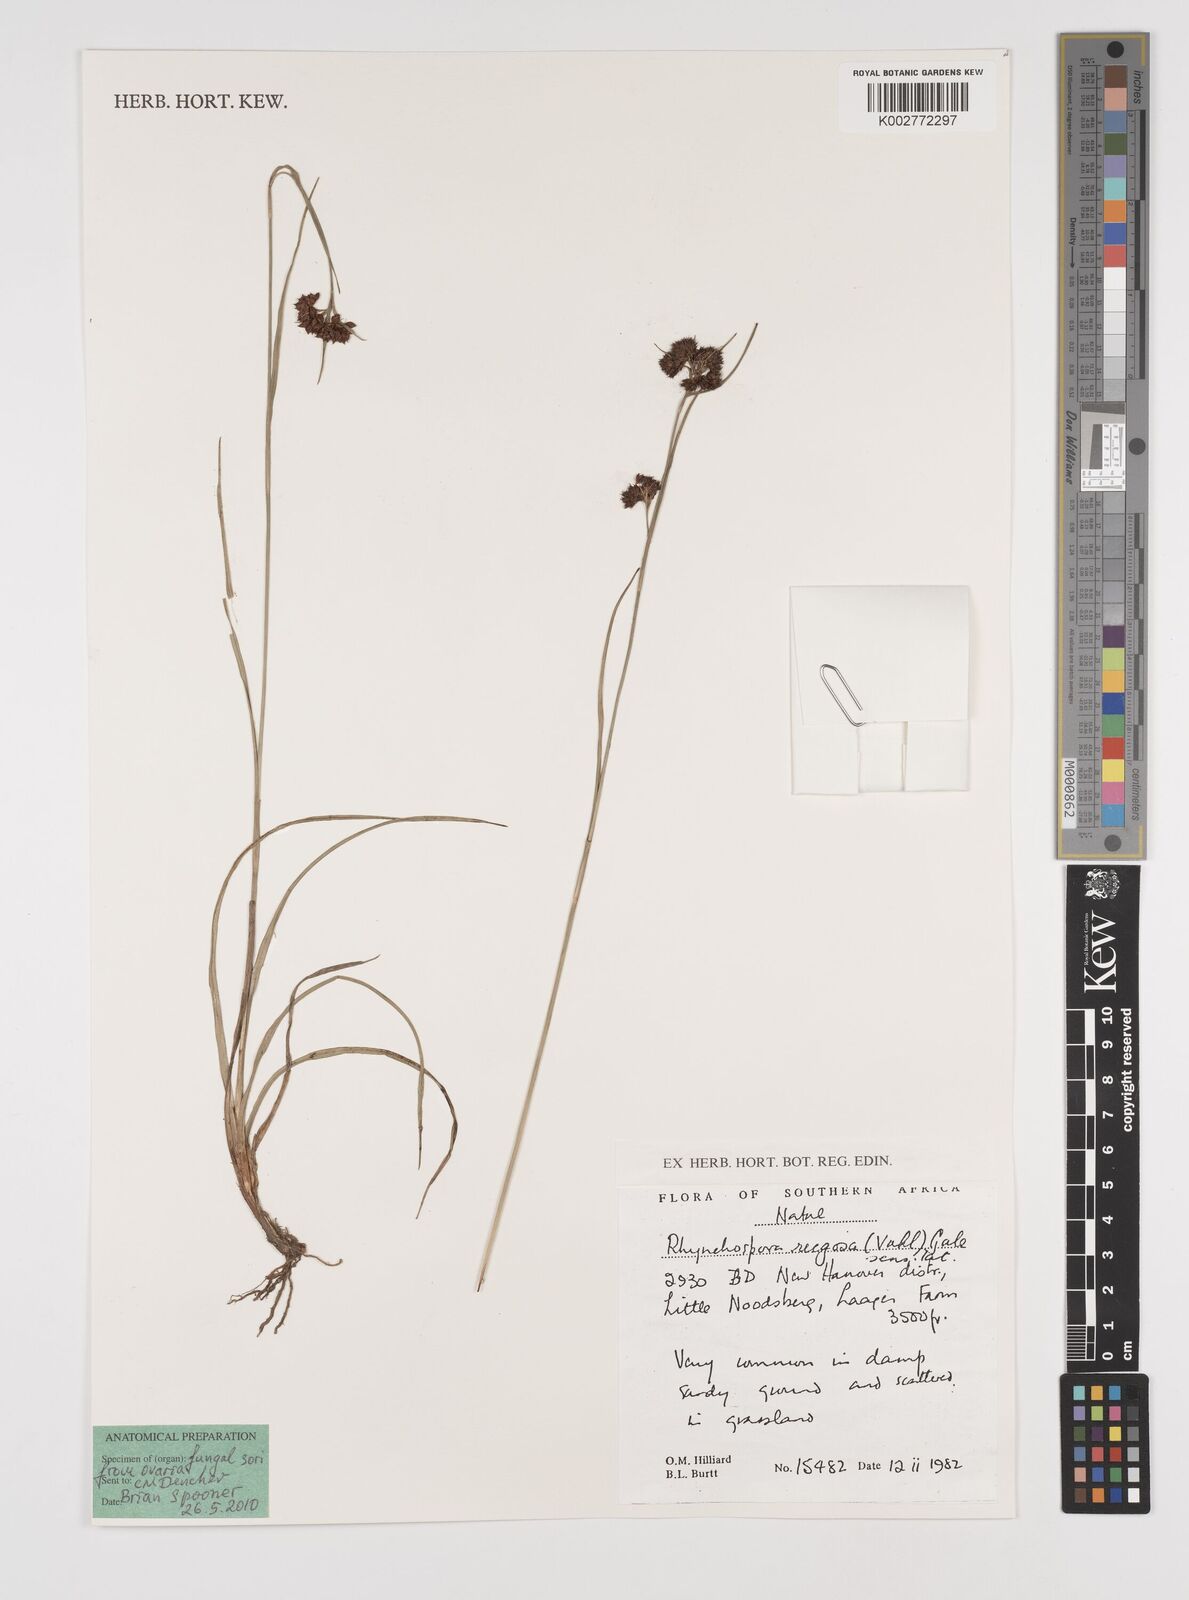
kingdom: Plantae
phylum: Tracheophyta
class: Liliopsida
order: Poales
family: Cyperaceae
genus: Rhynchospora
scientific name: Rhynchospora rugosa
